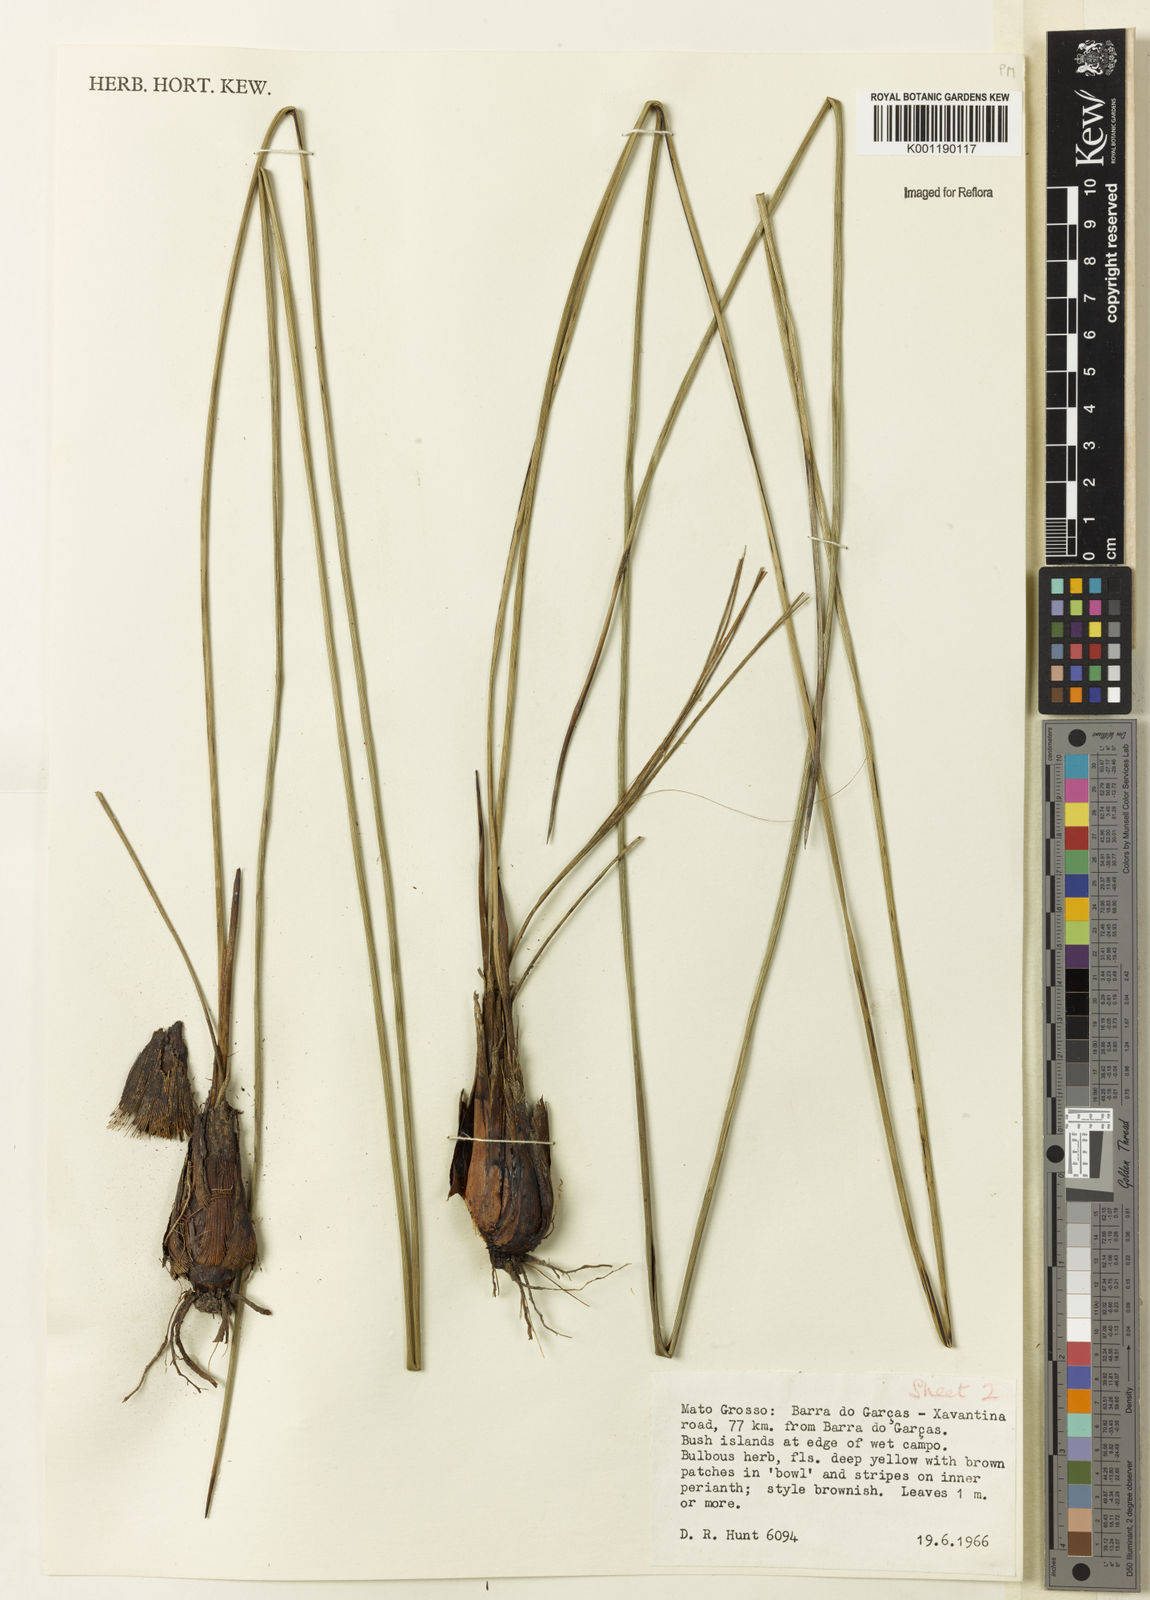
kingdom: Plantae
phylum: Tracheophyta
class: Liliopsida
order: Asparagales
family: Iridaceae
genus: Trimezia
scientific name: Trimezia juncifolia
